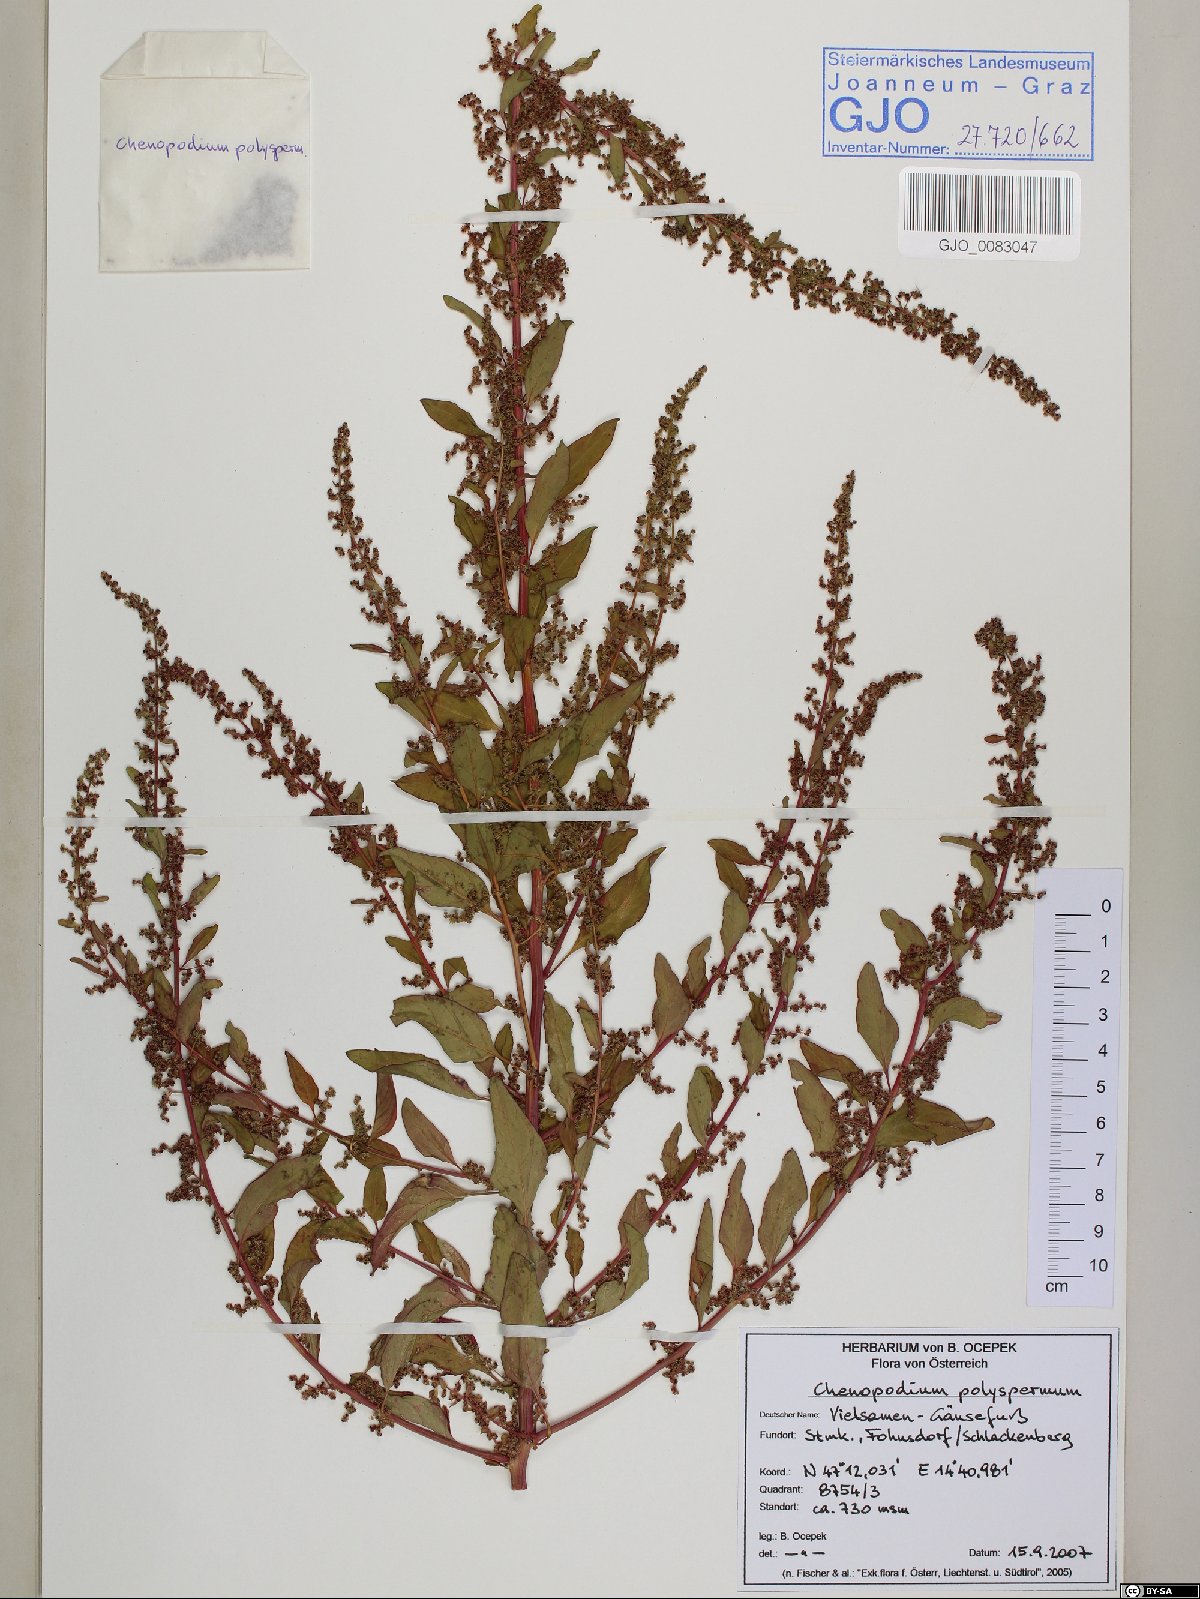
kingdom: Plantae
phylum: Tracheophyta
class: Magnoliopsida
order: Caryophyllales
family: Amaranthaceae
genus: Lipandra
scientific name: Lipandra polysperma
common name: Many-seed goosefoot
